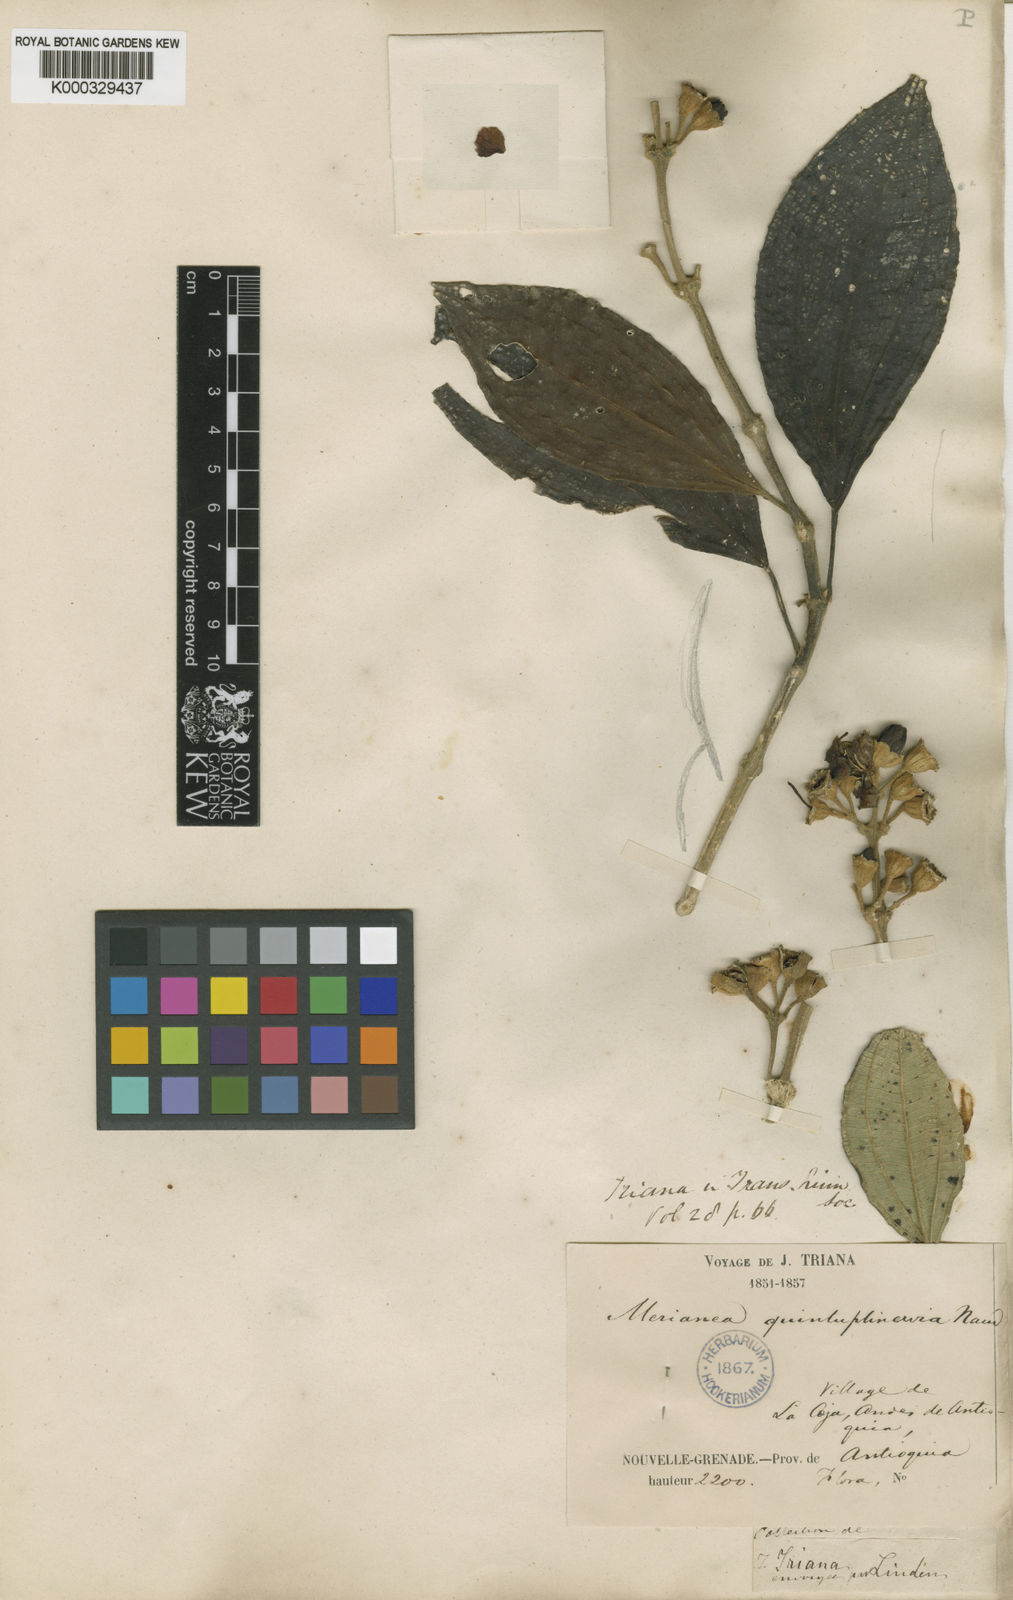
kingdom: Plantae
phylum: Tracheophyta
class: Magnoliopsida
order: Myrtales
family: Melastomataceae
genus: Meriania
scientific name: Meriania quintuplinervis
